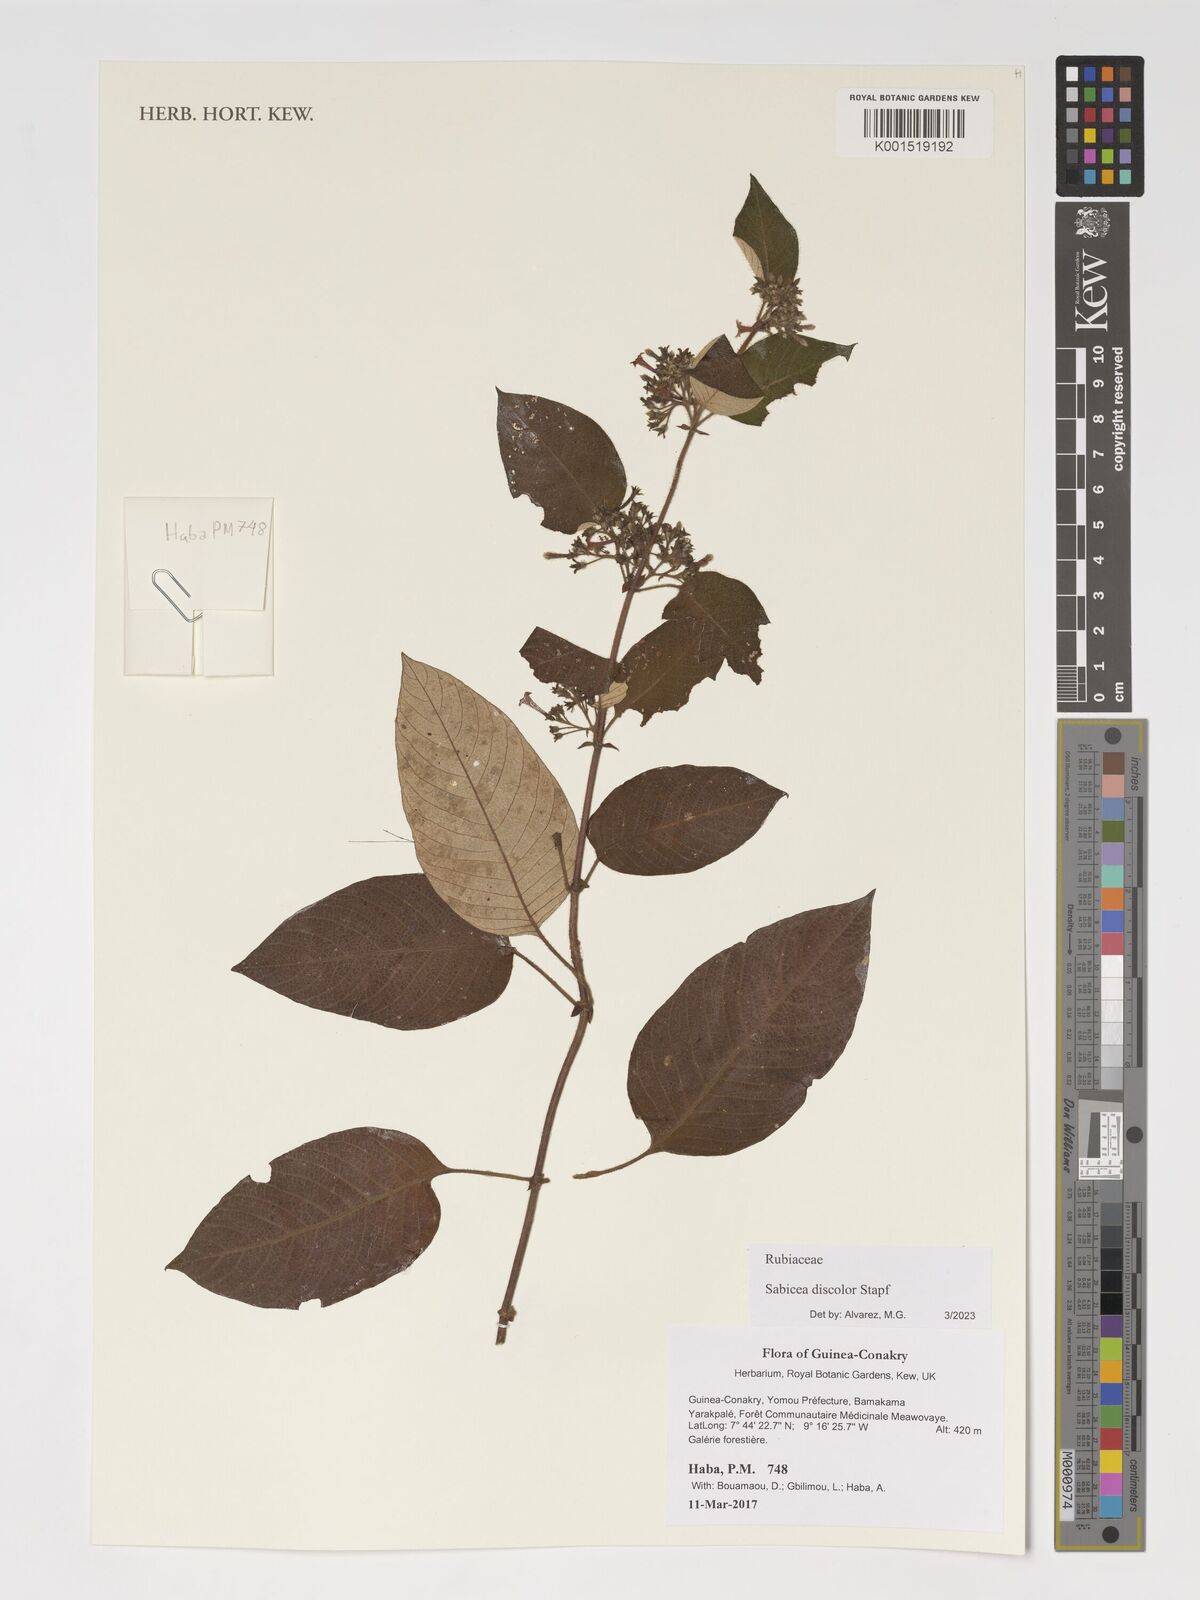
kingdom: Plantae
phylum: Tracheophyta
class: Magnoliopsida
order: Gentianales
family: Rubiaceae
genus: Sabicea
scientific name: Sabicea discolor
